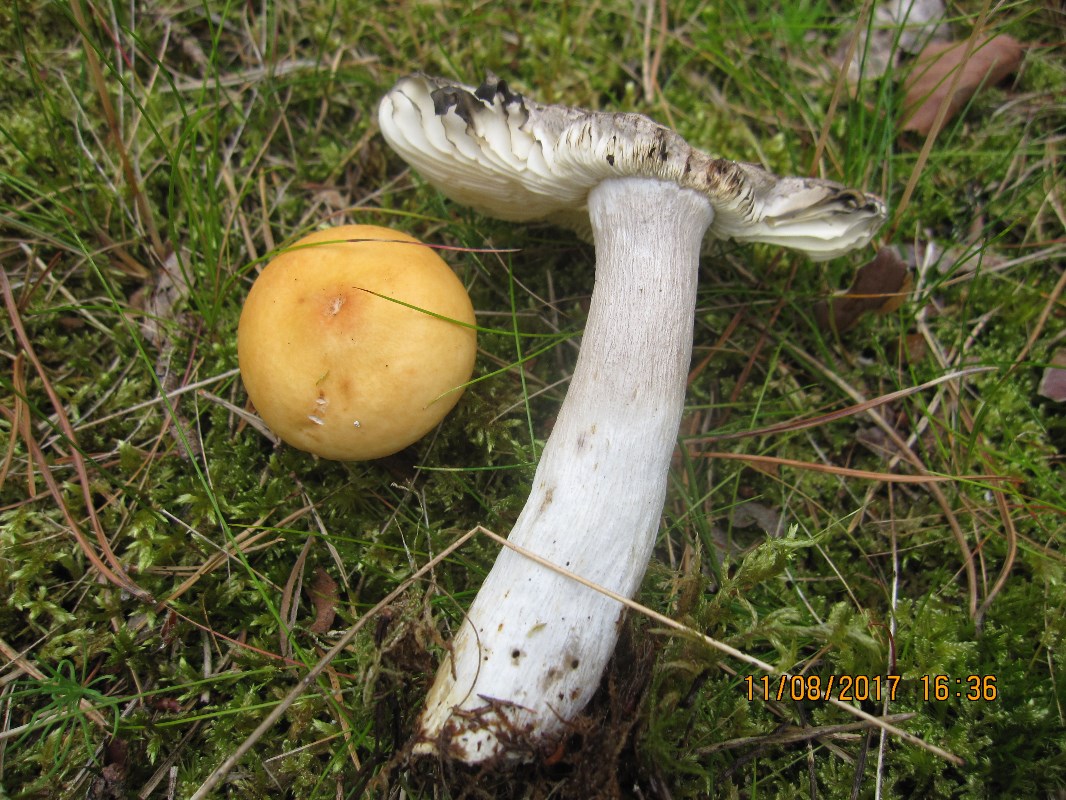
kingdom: Fungi
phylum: Basidiomycota
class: Agaricomycetes
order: Russulales
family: Russulaceae
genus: Russula
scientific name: Russula decolorans
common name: afblegende skørhat
